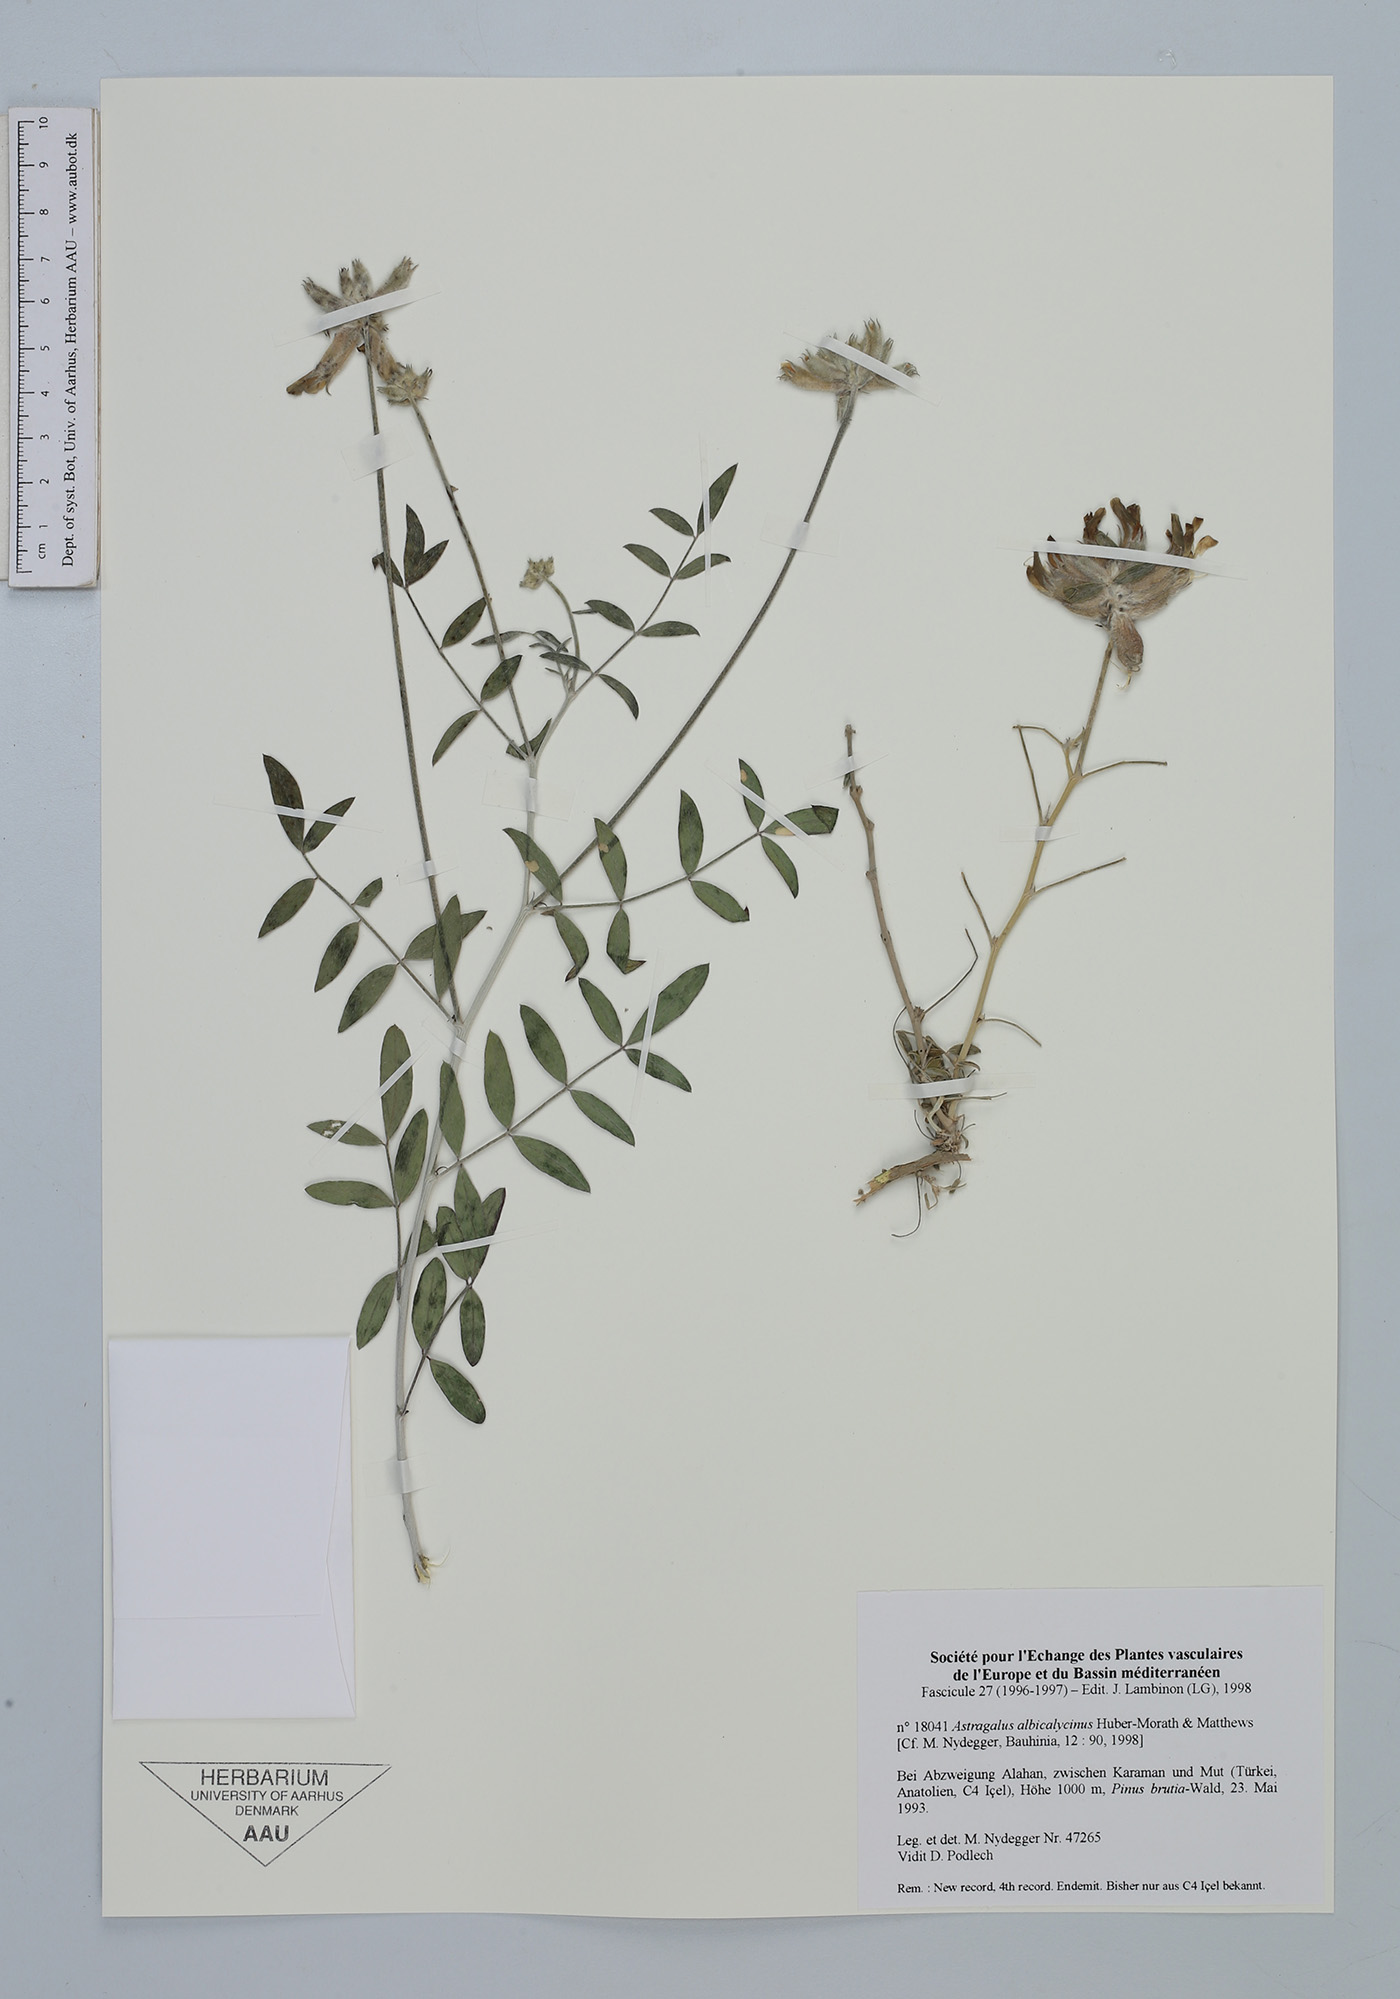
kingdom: Plantae
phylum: Tracheophyta
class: Magnoliopsida
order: Fabales
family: Fabaceae
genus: Astragalus
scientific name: Astragalus albicalycinus
